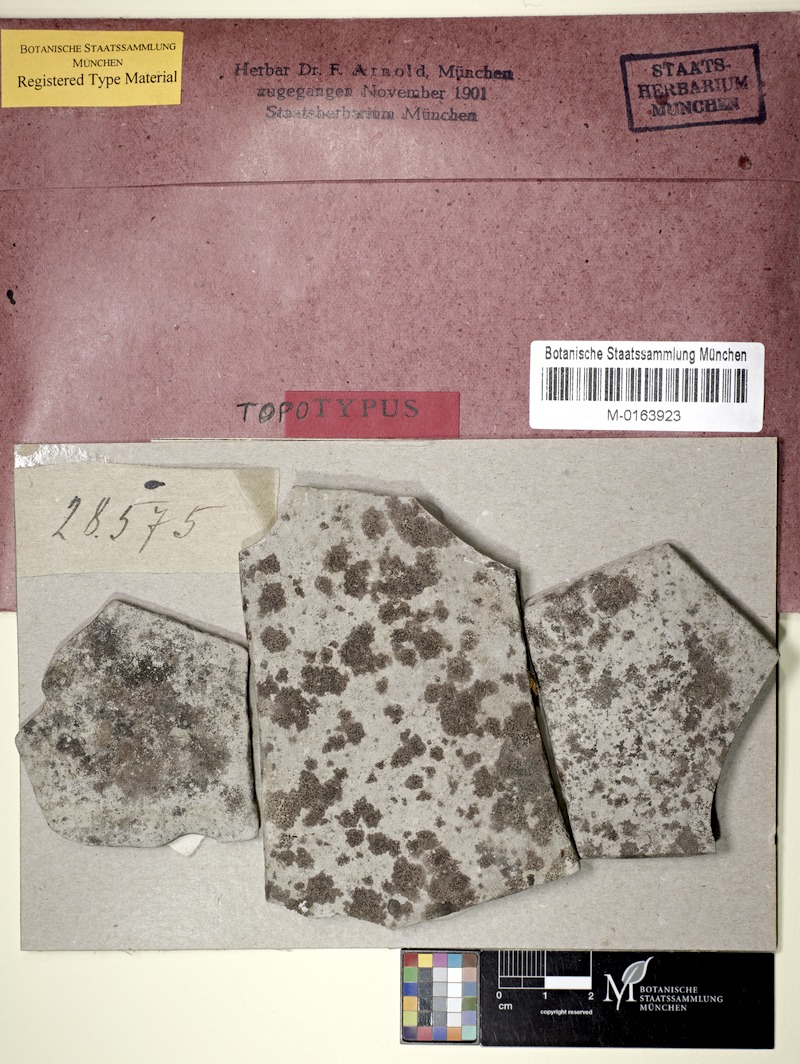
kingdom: Fungi
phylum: Ascomycota
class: Eurotiomycetes
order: Verrucariales
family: Verrucariaceae
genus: Verrucaria
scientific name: Verrucaria maculiformis
